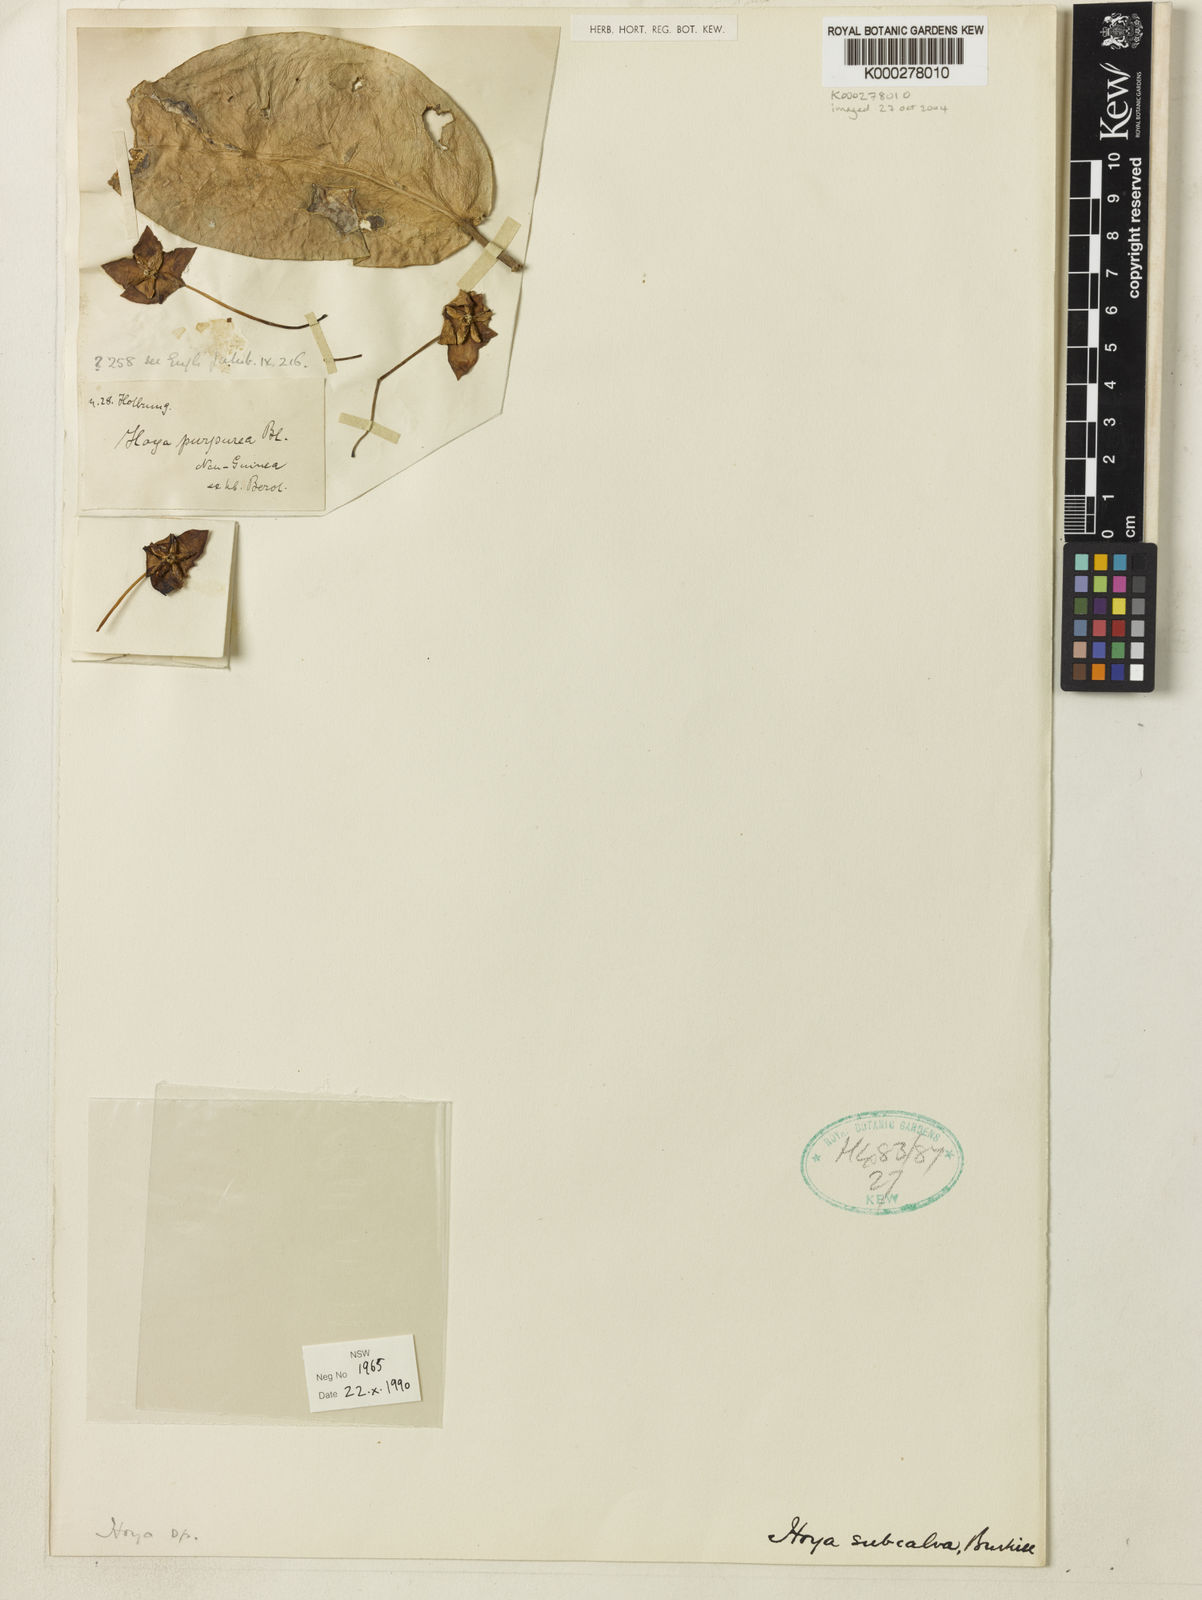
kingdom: Plantae
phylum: Tracheophyta
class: Magnoliopsida
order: Gentianales
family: Apocynaceae
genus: Hoya
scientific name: Hoya subcalva
